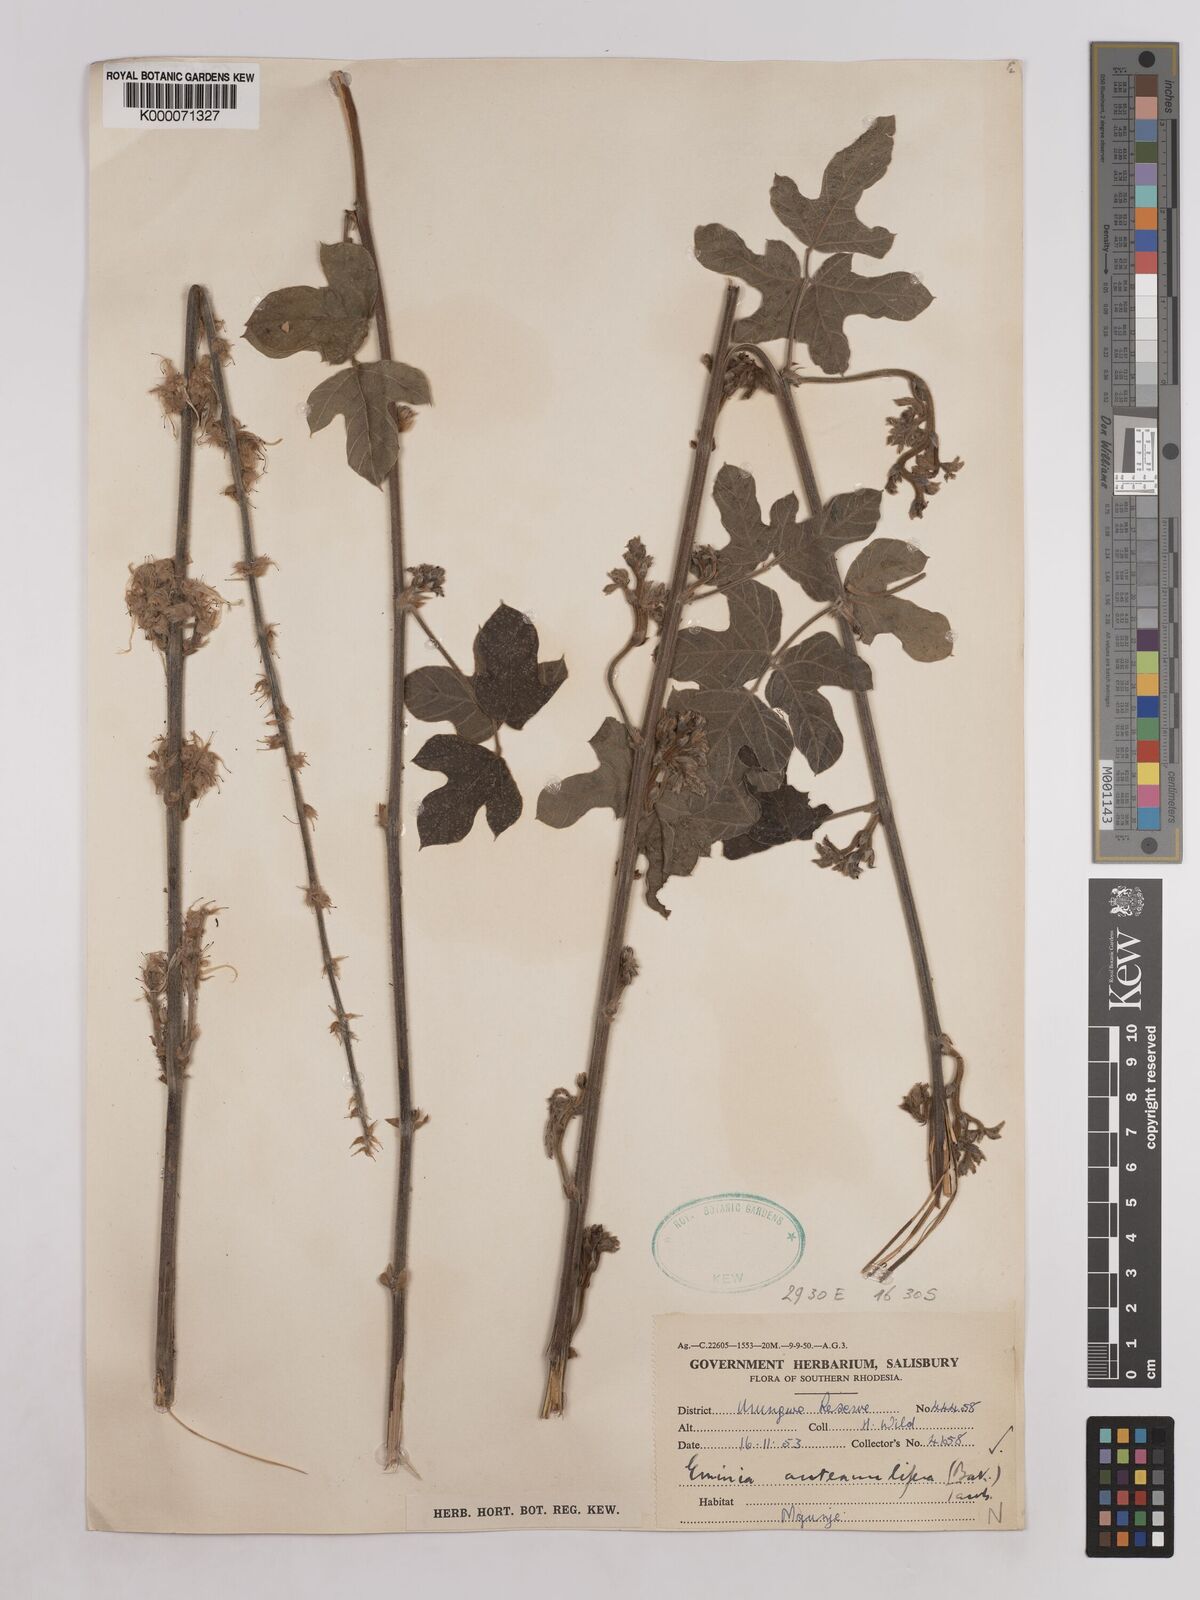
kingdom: Plantae
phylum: Tracheophyta
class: Magnoliopsida
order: Fabales
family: Fabaceae
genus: Eminia
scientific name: Eminia antennulifera
